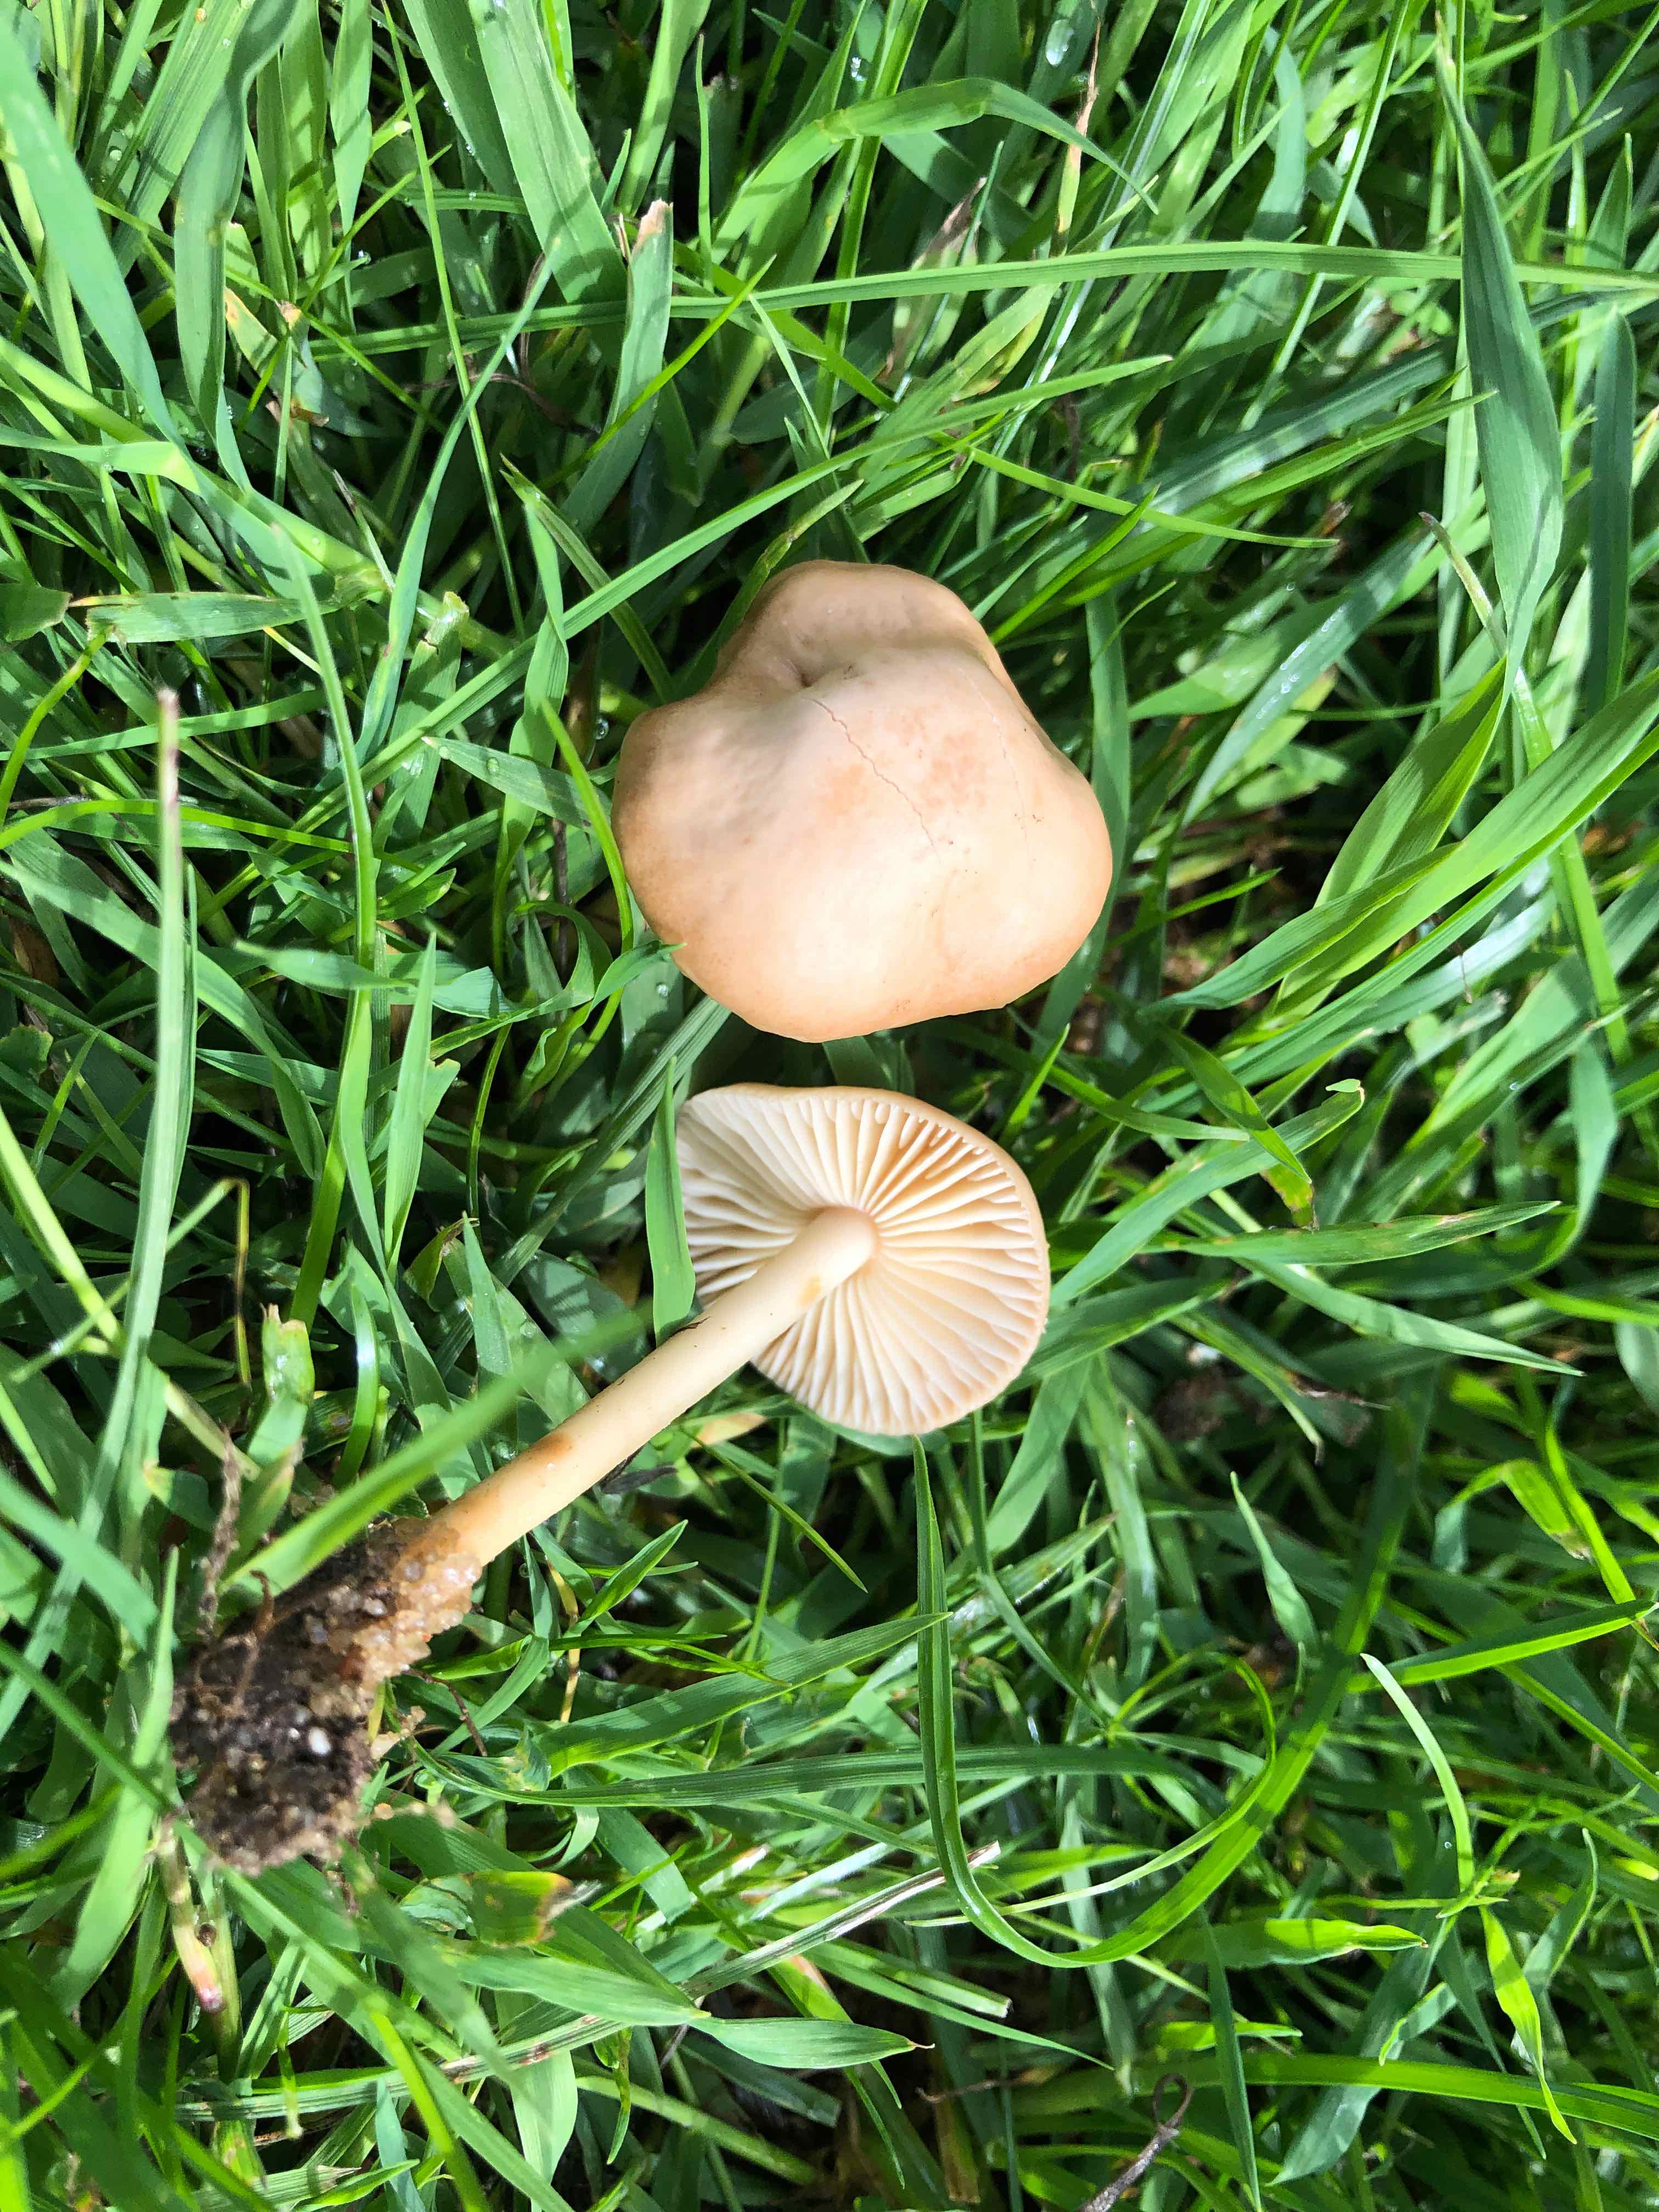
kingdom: Fungi
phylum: Basidiomycota
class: Agaricomycetes
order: Agaricales
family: Marasmiaceae
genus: Marasmius
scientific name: Marasmius oreades
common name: elledans-bruskhat
